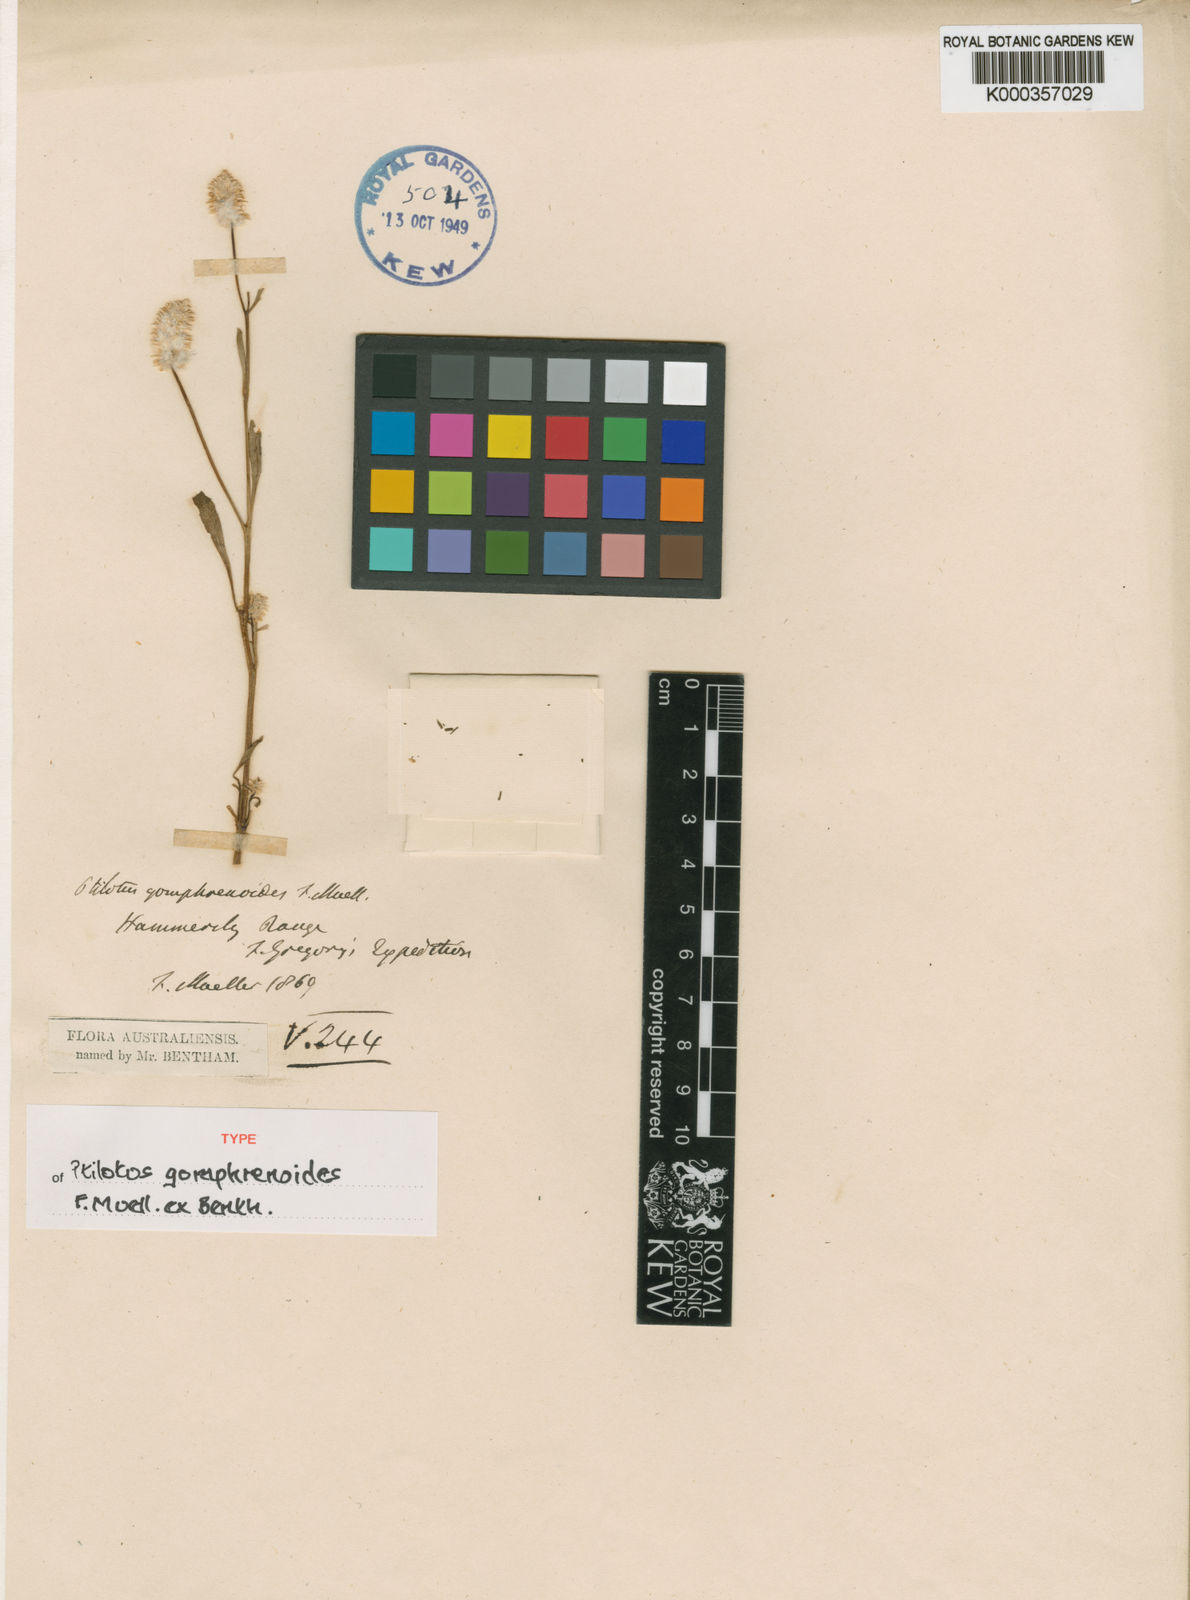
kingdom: Plantae
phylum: Tracheophyta
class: Magnoliopsida
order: Caryophyllales
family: Amaranthaceae
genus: Ptilotus
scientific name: Ptilotus
